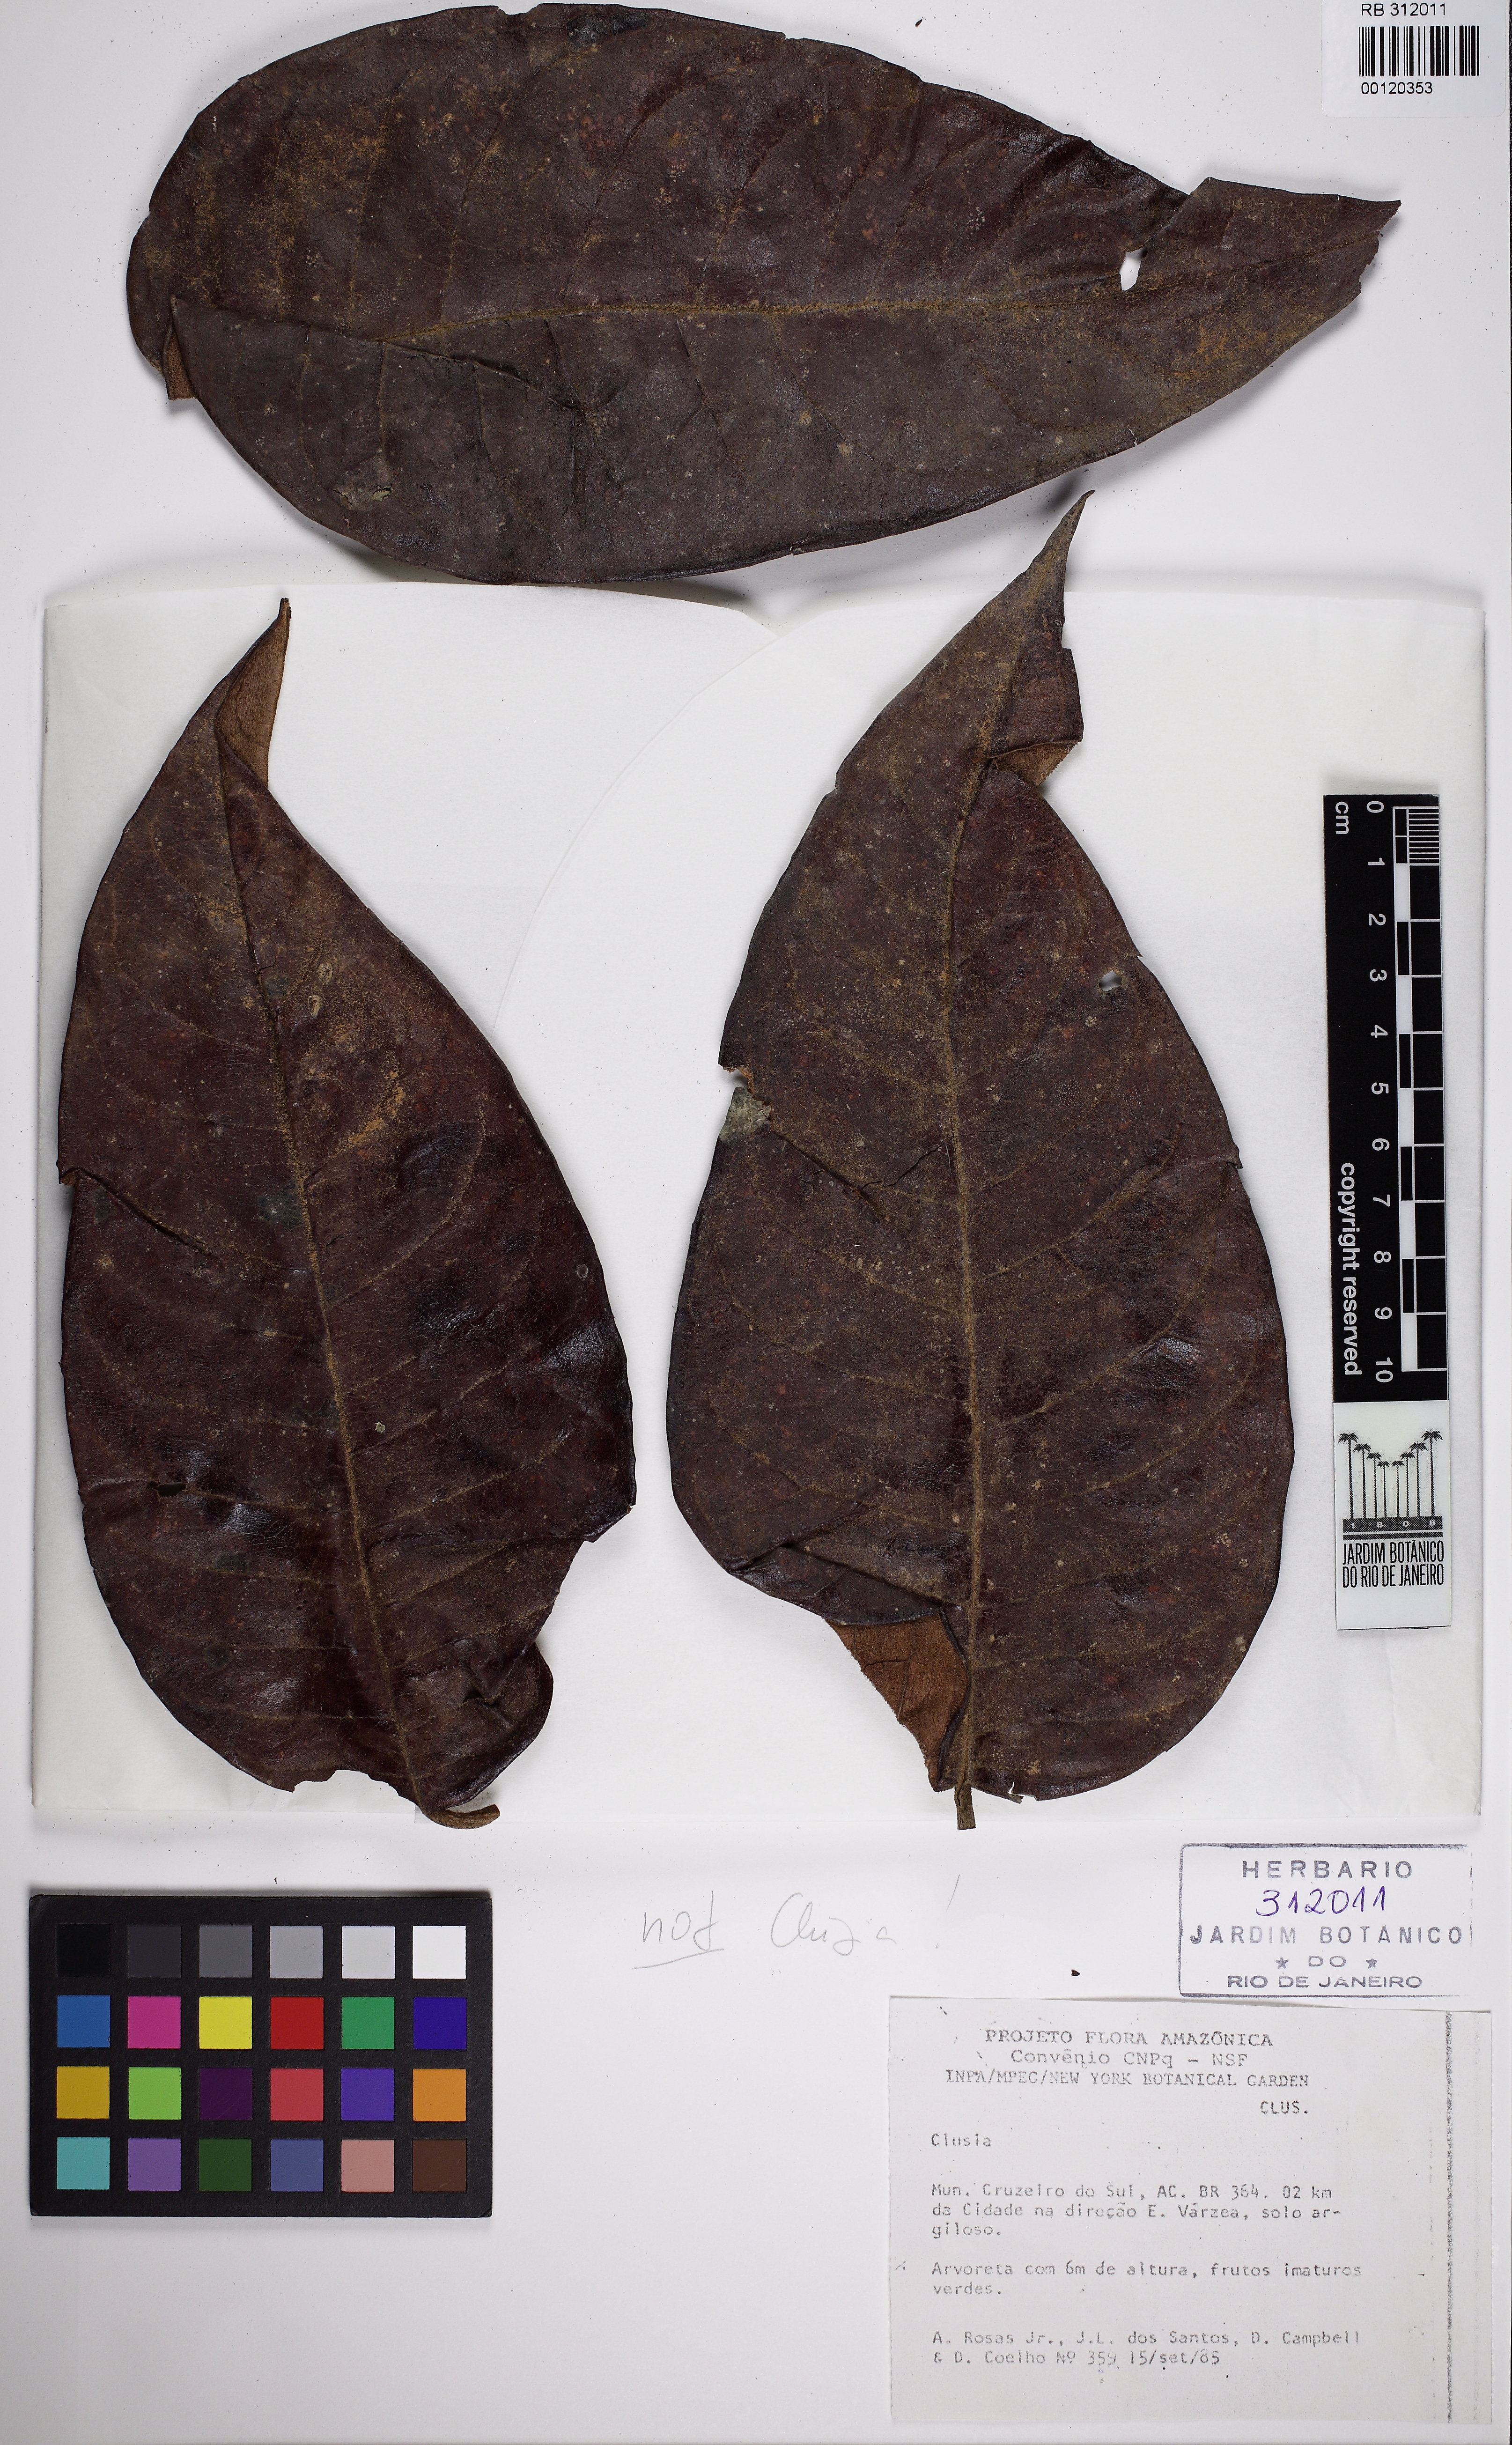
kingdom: Plantae
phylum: Tracheophyta
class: Magnoliopsida
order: Malpighiales
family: Clusiaceae
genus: Clusia
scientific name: Clusia
